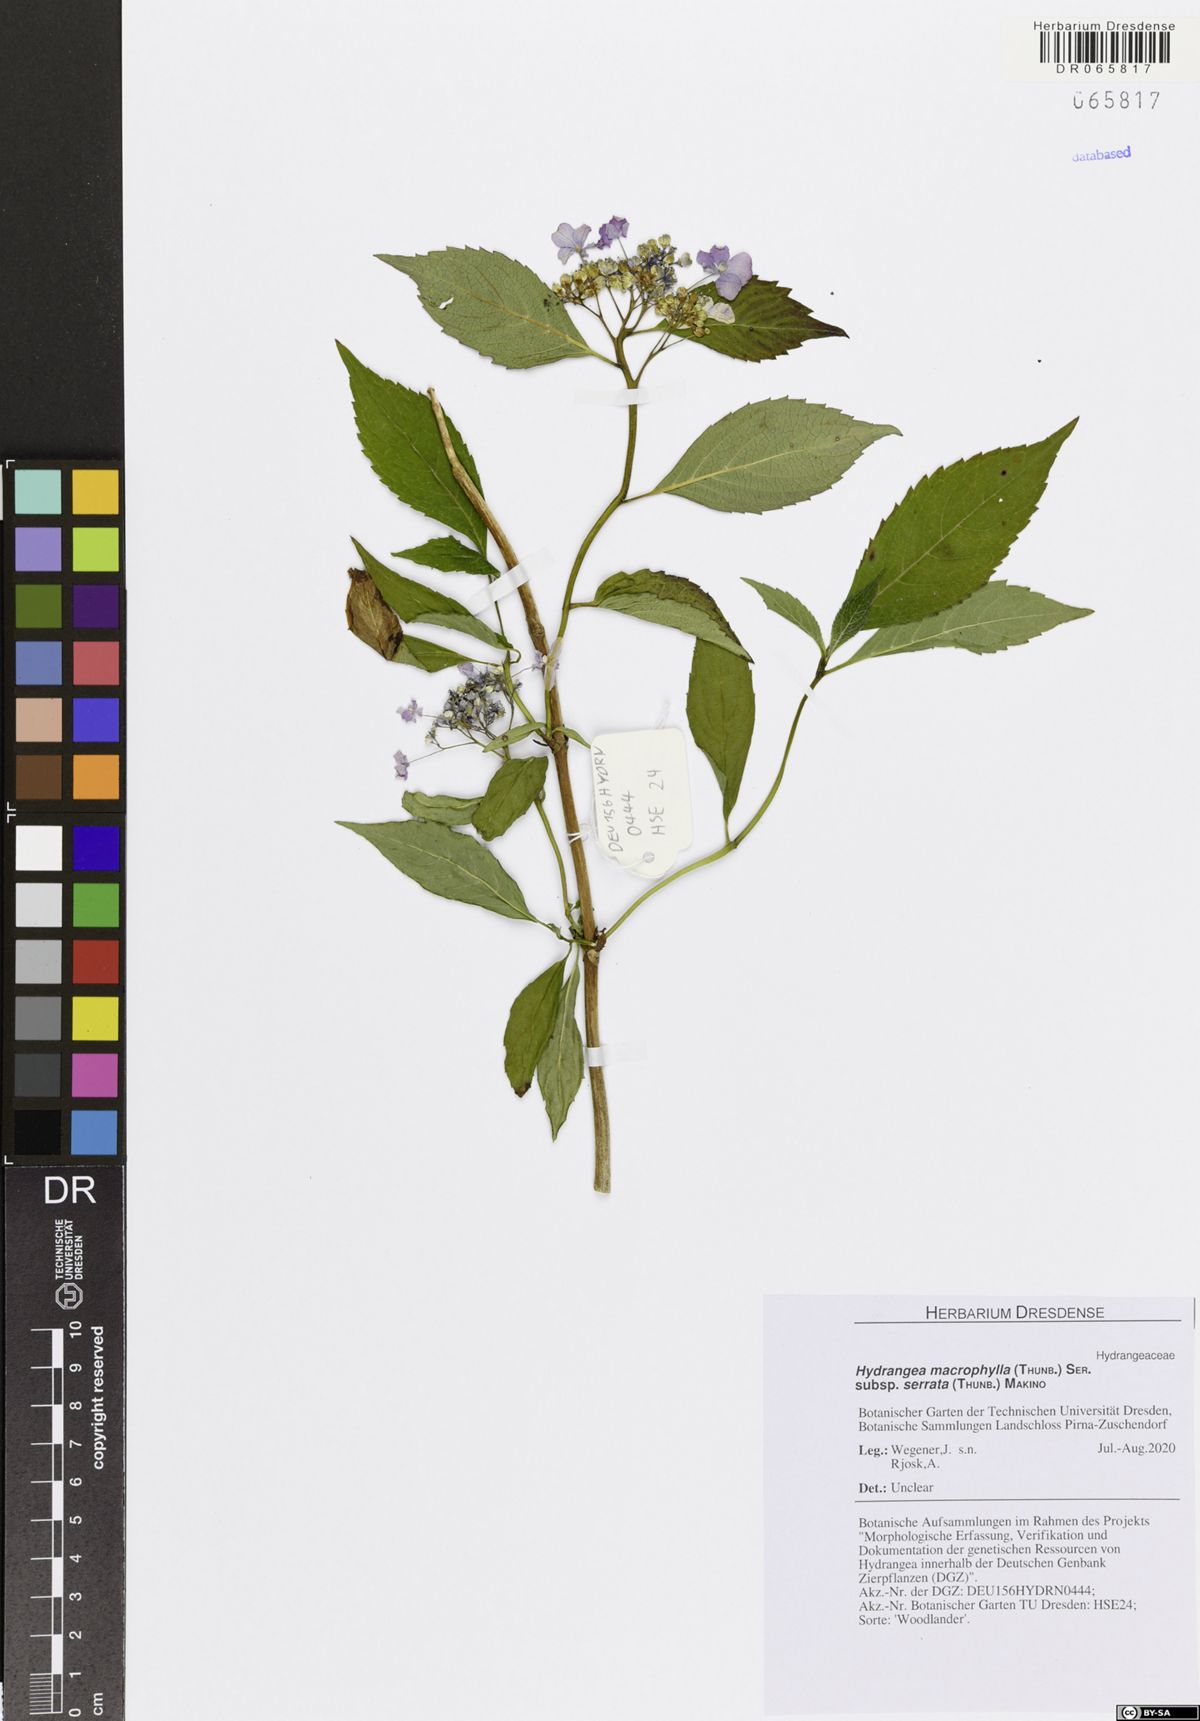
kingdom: Plantae
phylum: Tracheophyta
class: Magnoliopsida
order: Cornales
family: Hydrangeaceae
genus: Hydrangea
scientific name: Hydrangea serrata
